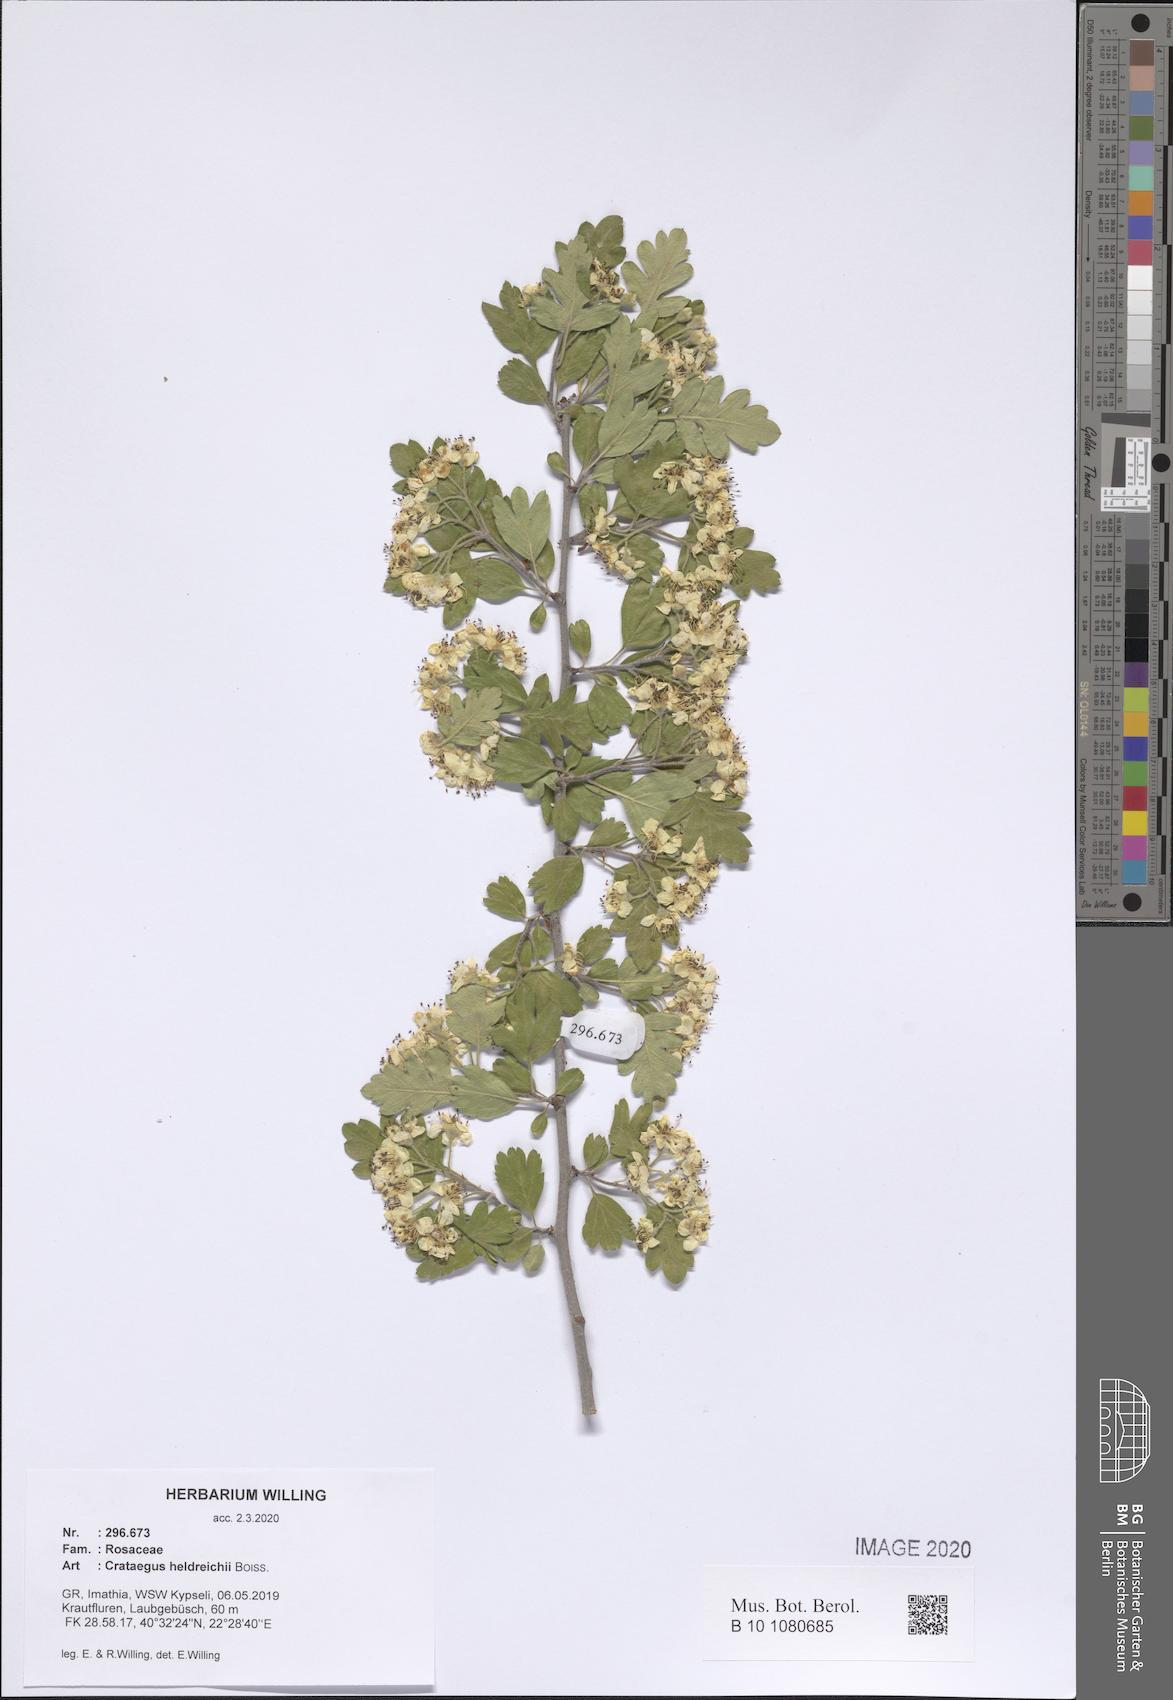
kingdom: Plantae
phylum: Tracheophyta
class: Magnoliopsida
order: Rosales
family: Rosaceae
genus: Crataegus
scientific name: Crataegus heldreichii
